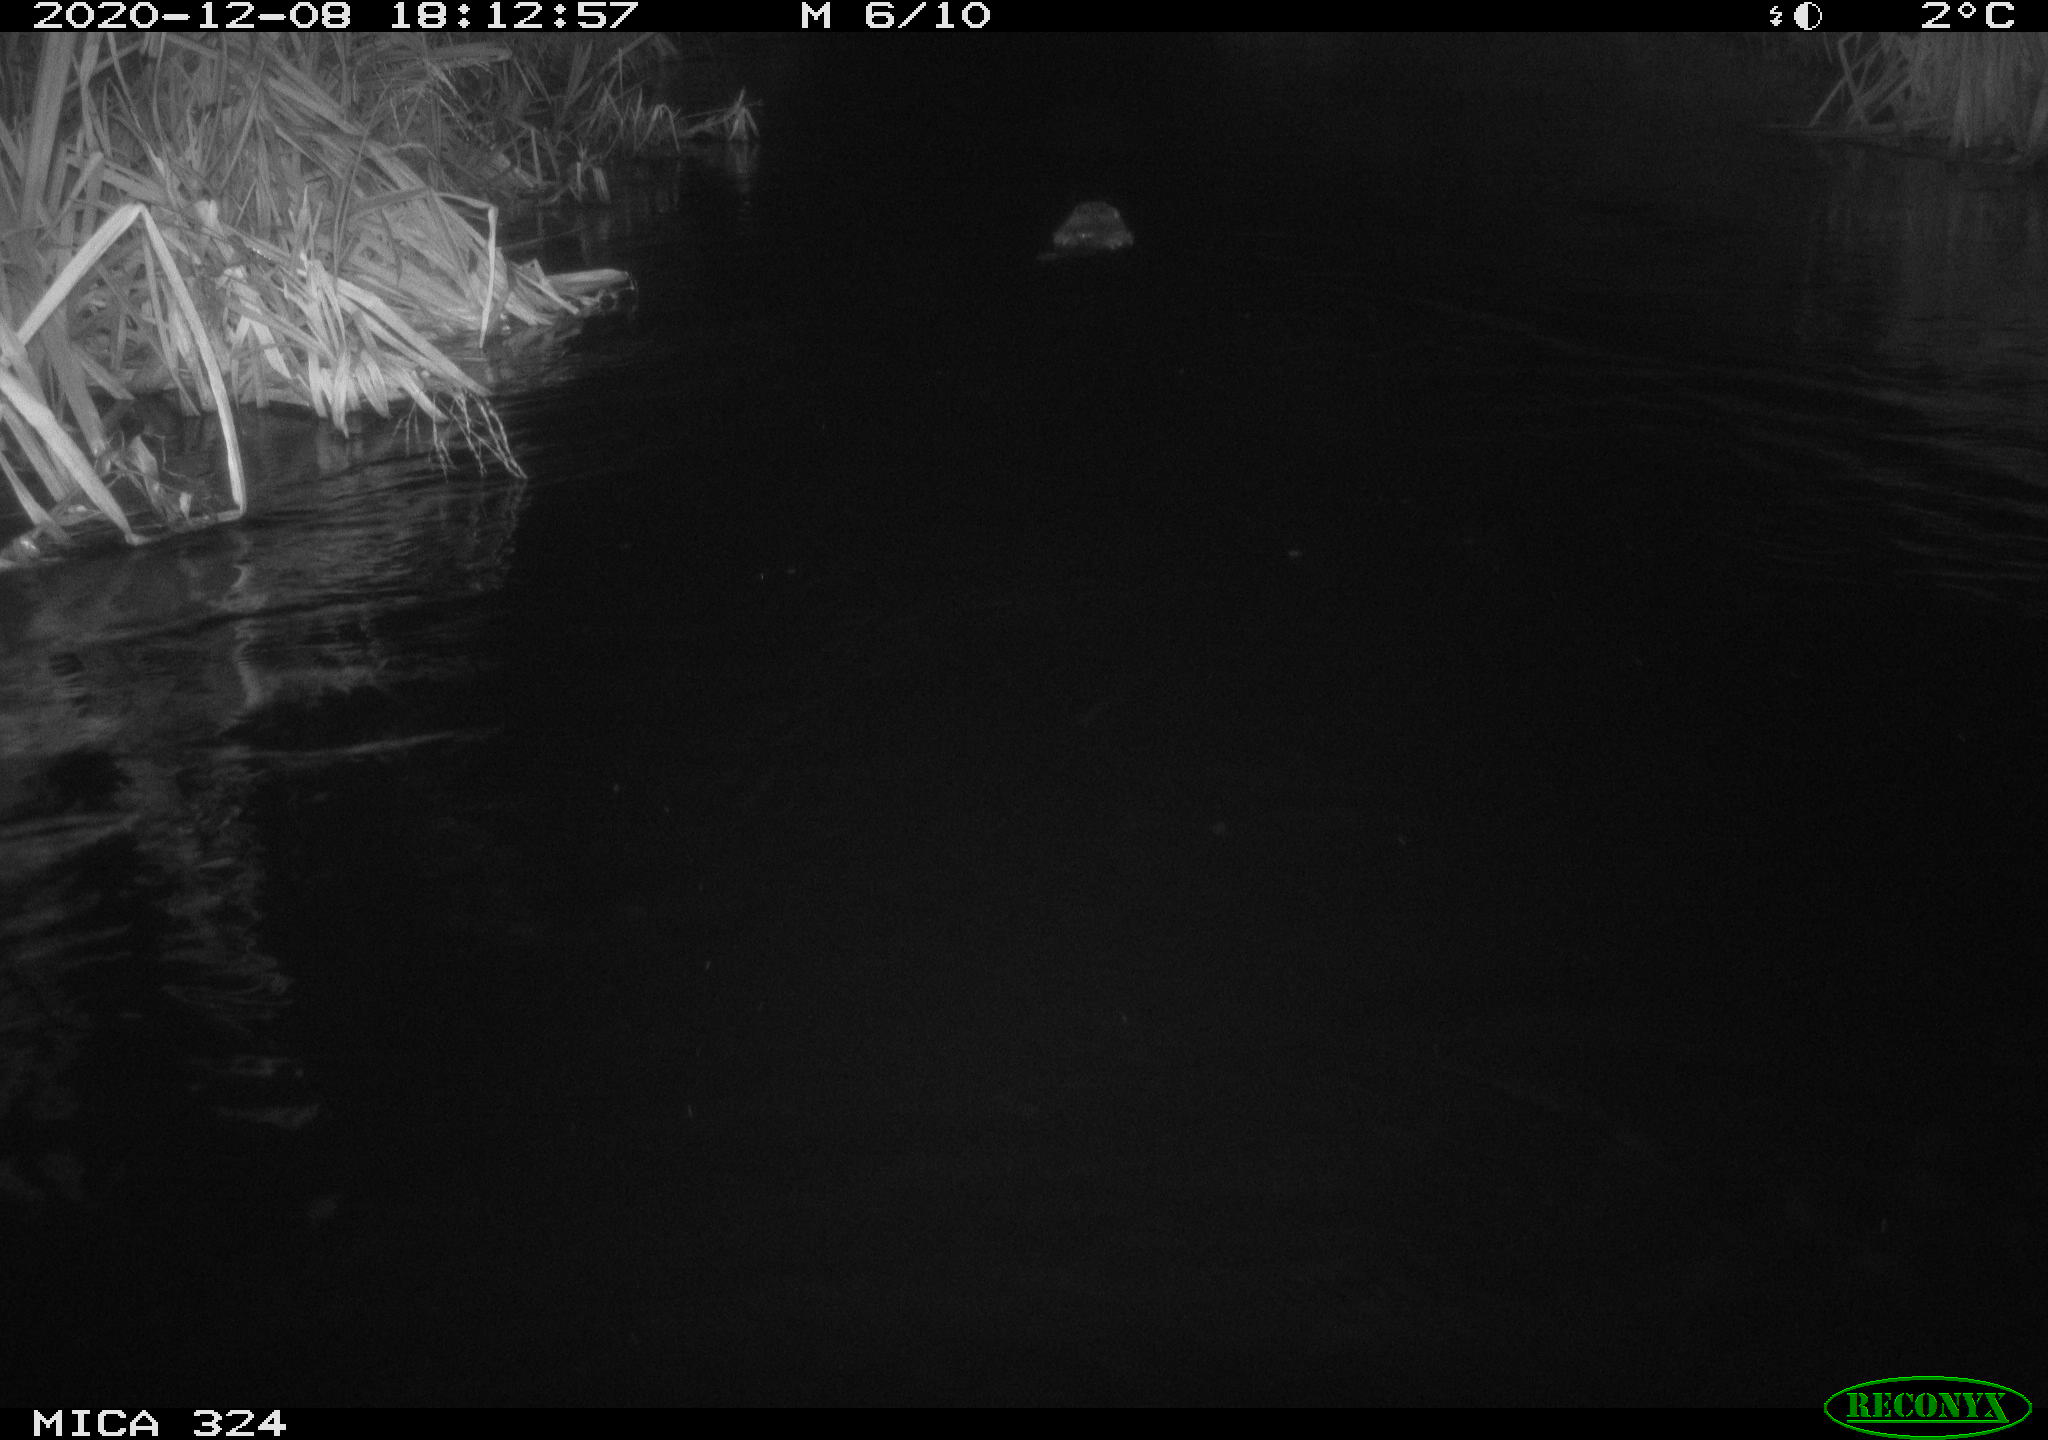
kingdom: Animalia
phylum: Chordata
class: Mammalia
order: Rodentia
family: Castoridae
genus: Castor
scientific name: Castor fiber
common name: Eurasian beaver
